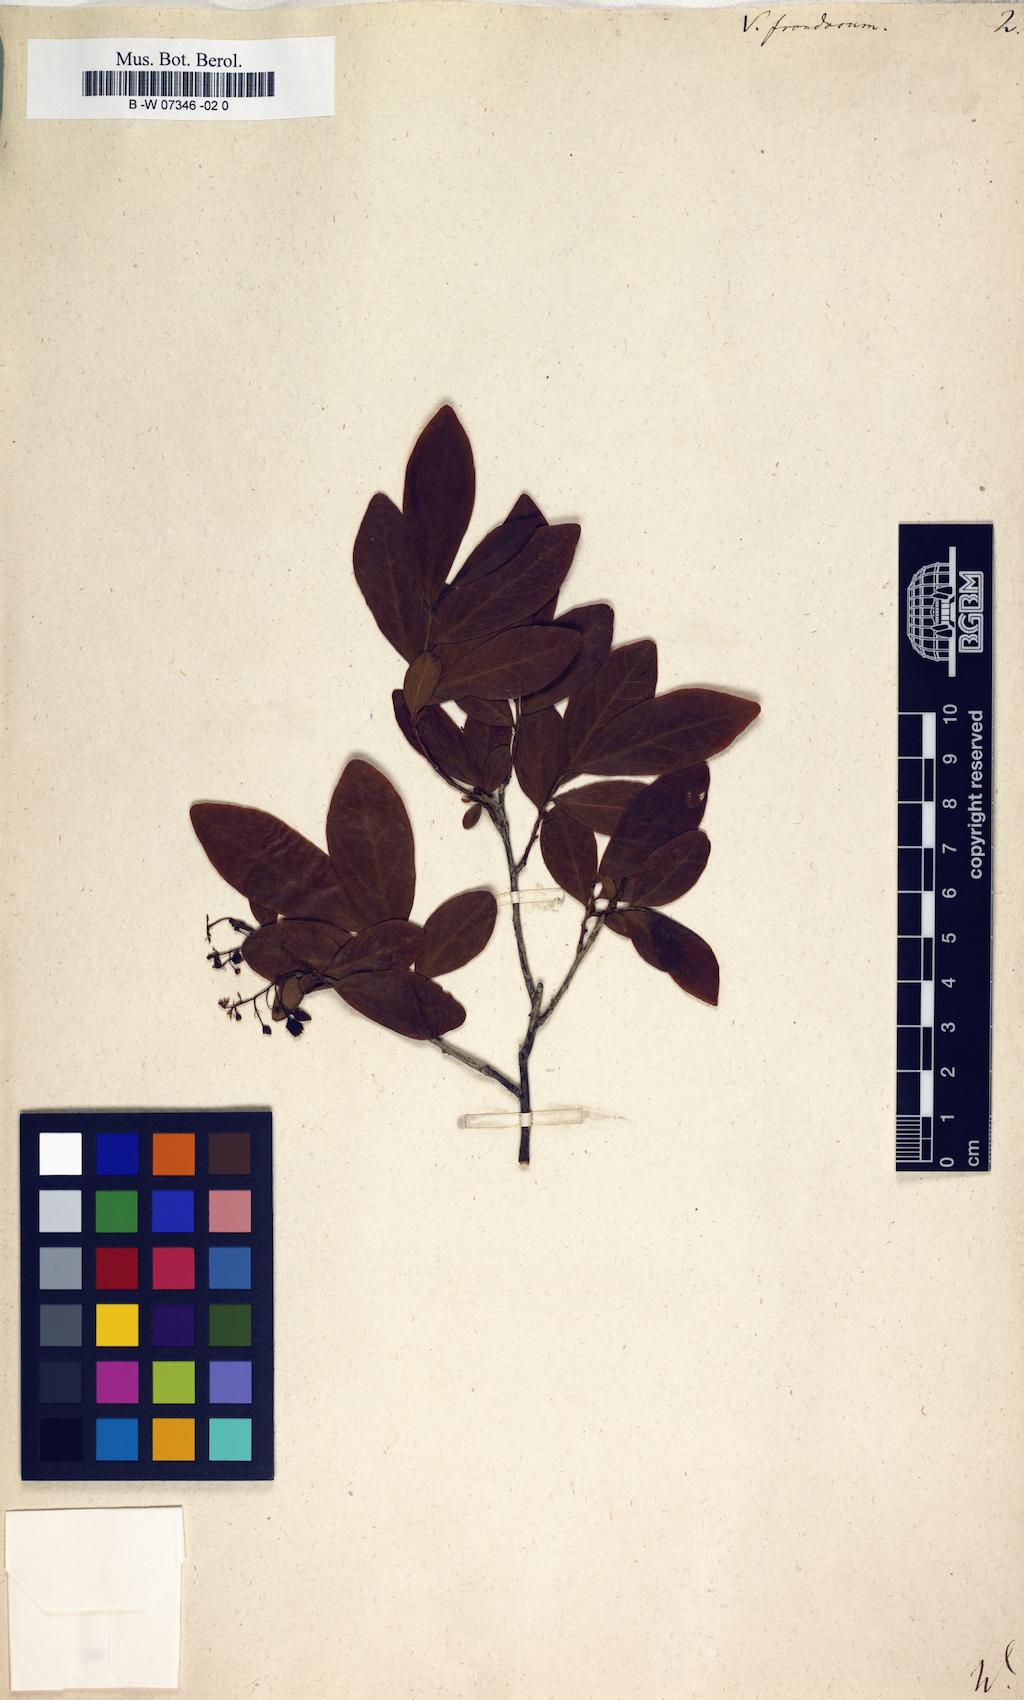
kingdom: Plantae
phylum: Tracheophyta
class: Magnoliopsida
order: Ericales
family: Ericaceae
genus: Gaylussacia
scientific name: Gaylussacia frondosa
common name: Dangleberry
